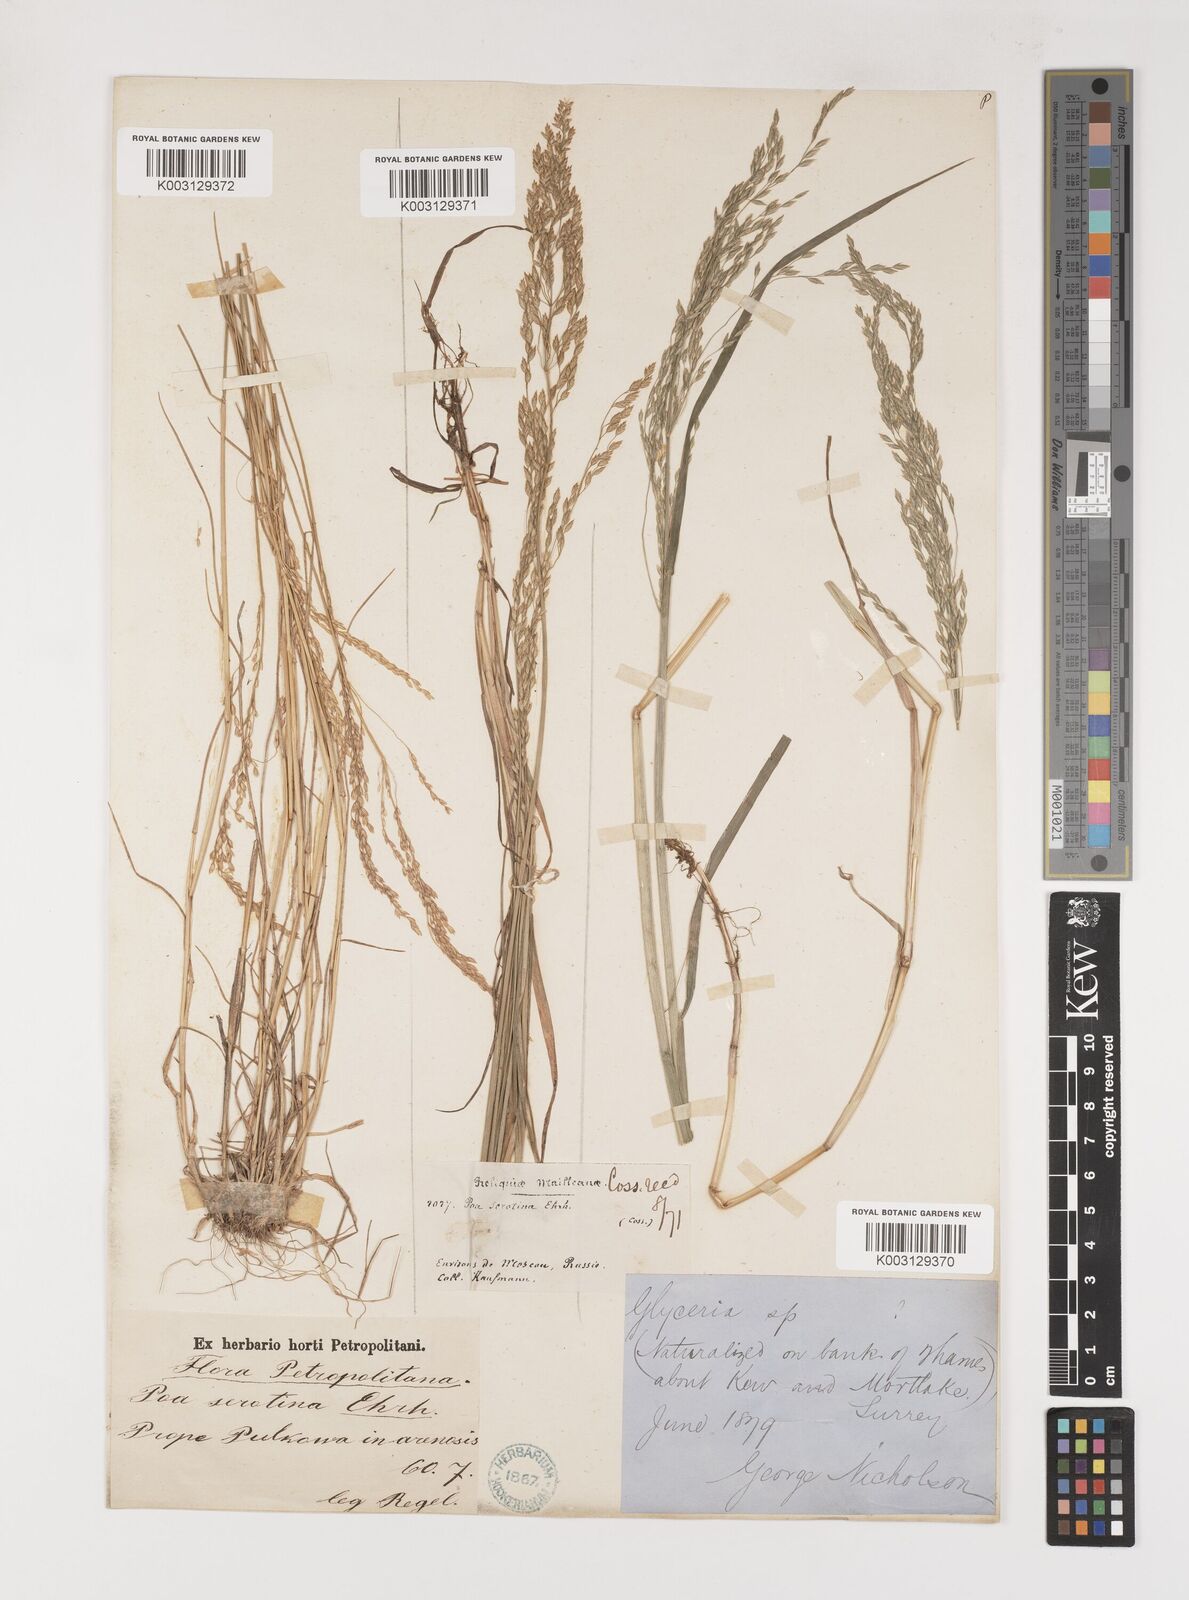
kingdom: Plantae
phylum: Tracheophyta
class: Liliopsida
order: Poales
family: Poaceae
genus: Poa
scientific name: Poa palustris
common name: Swamp meadow-grass
